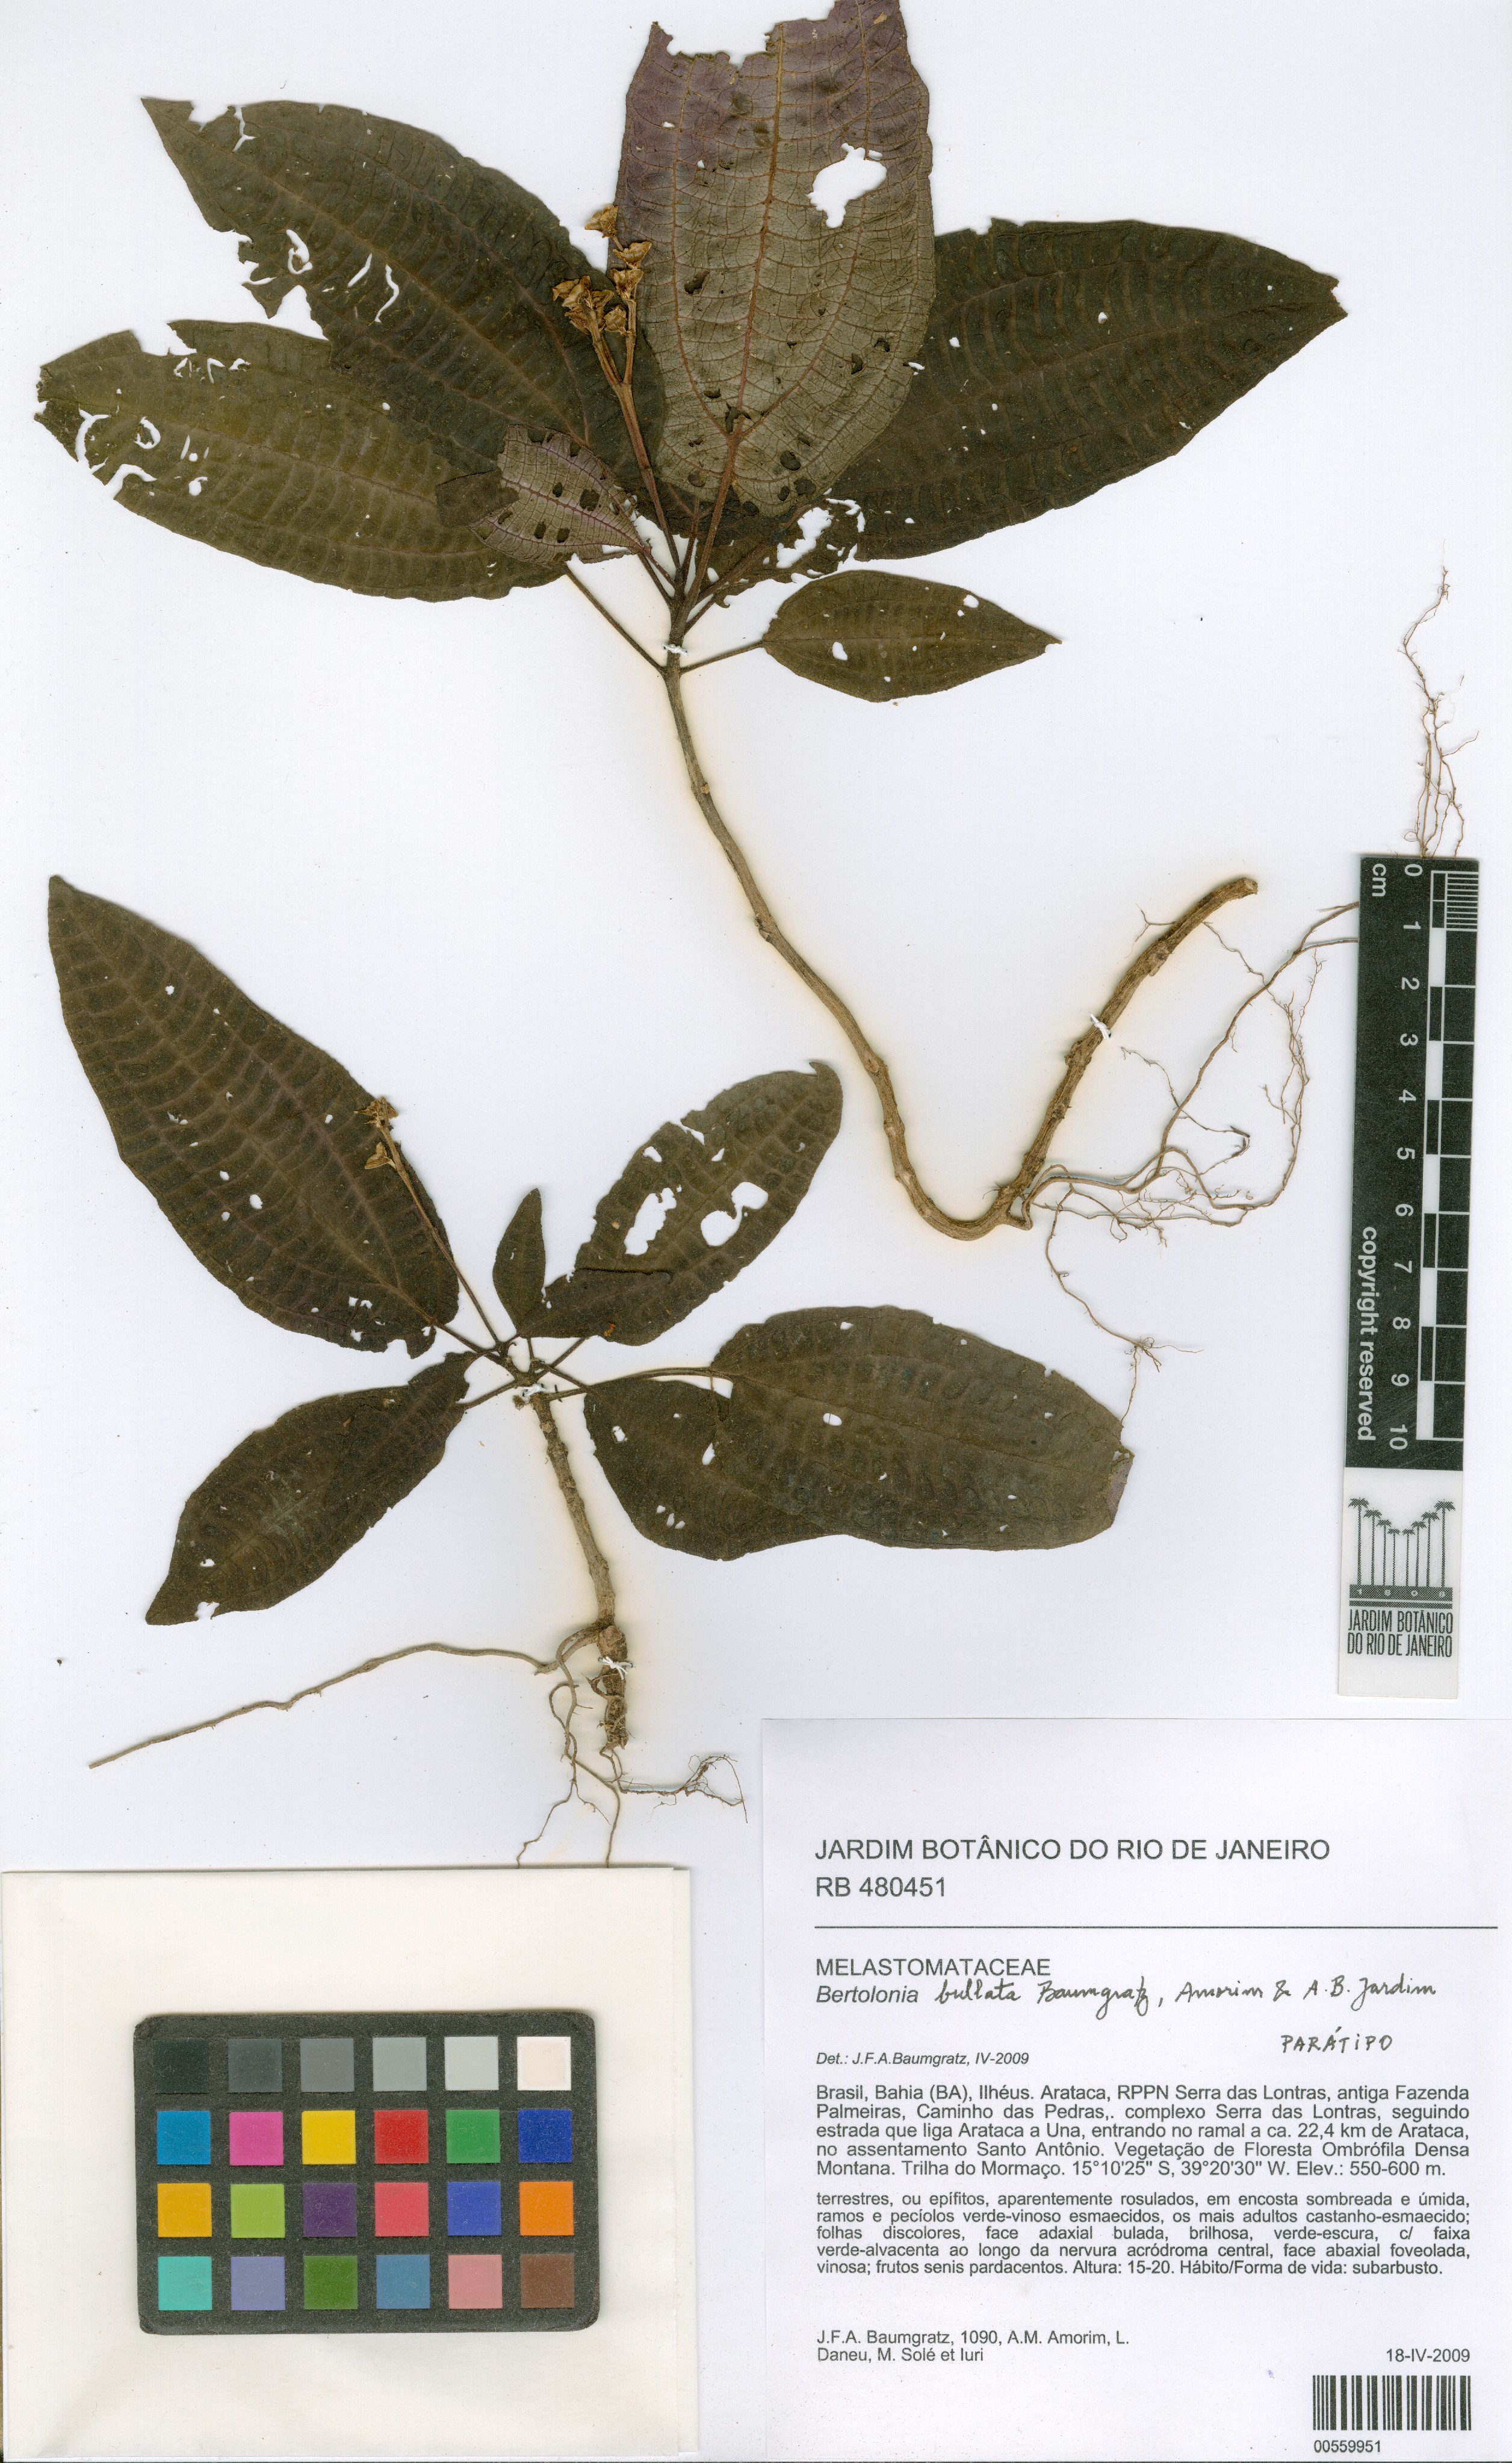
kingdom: Plantae
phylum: Tracheophyta
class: Magnoliopsida
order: Myrtales
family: Melastomataceae
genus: Bertolonia
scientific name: Bertolonia bullata
